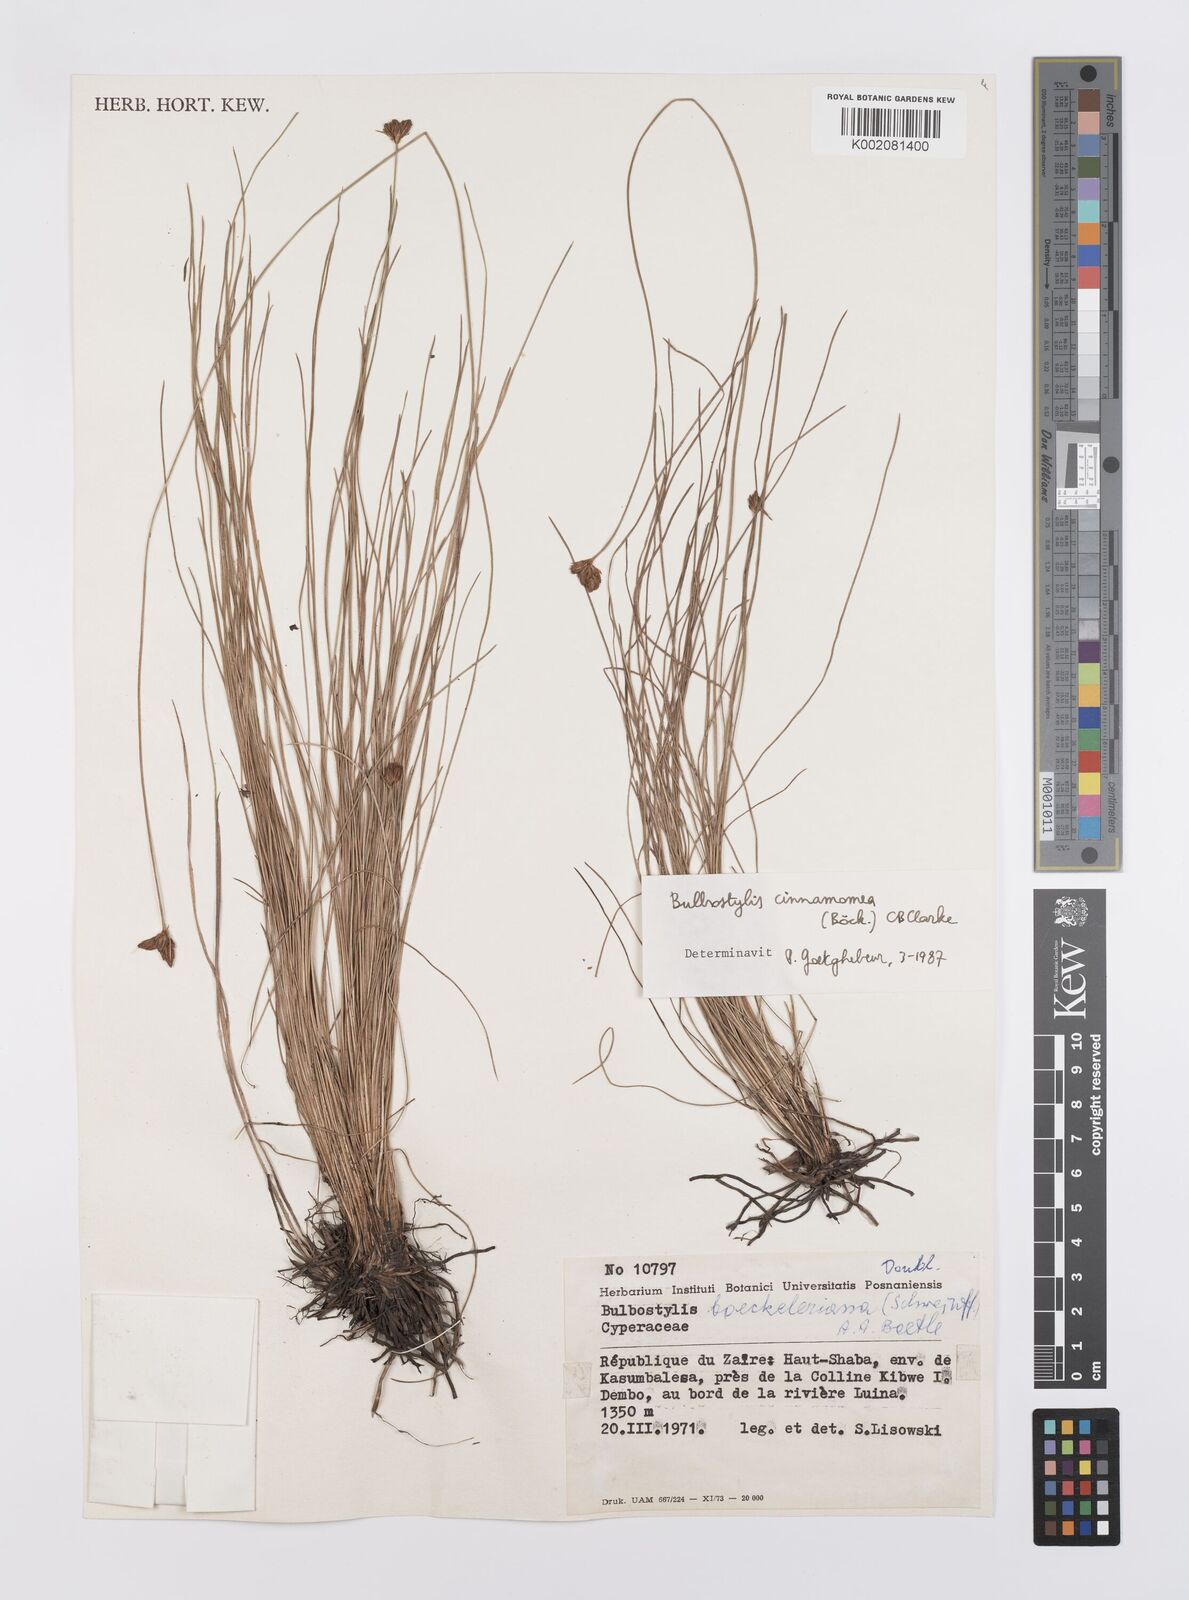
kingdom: Plantae
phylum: Tracheophyta
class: Liliopsida
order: Poales
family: Cyperaceae
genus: Bulbostylis
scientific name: Bulbostylis schoenoides
